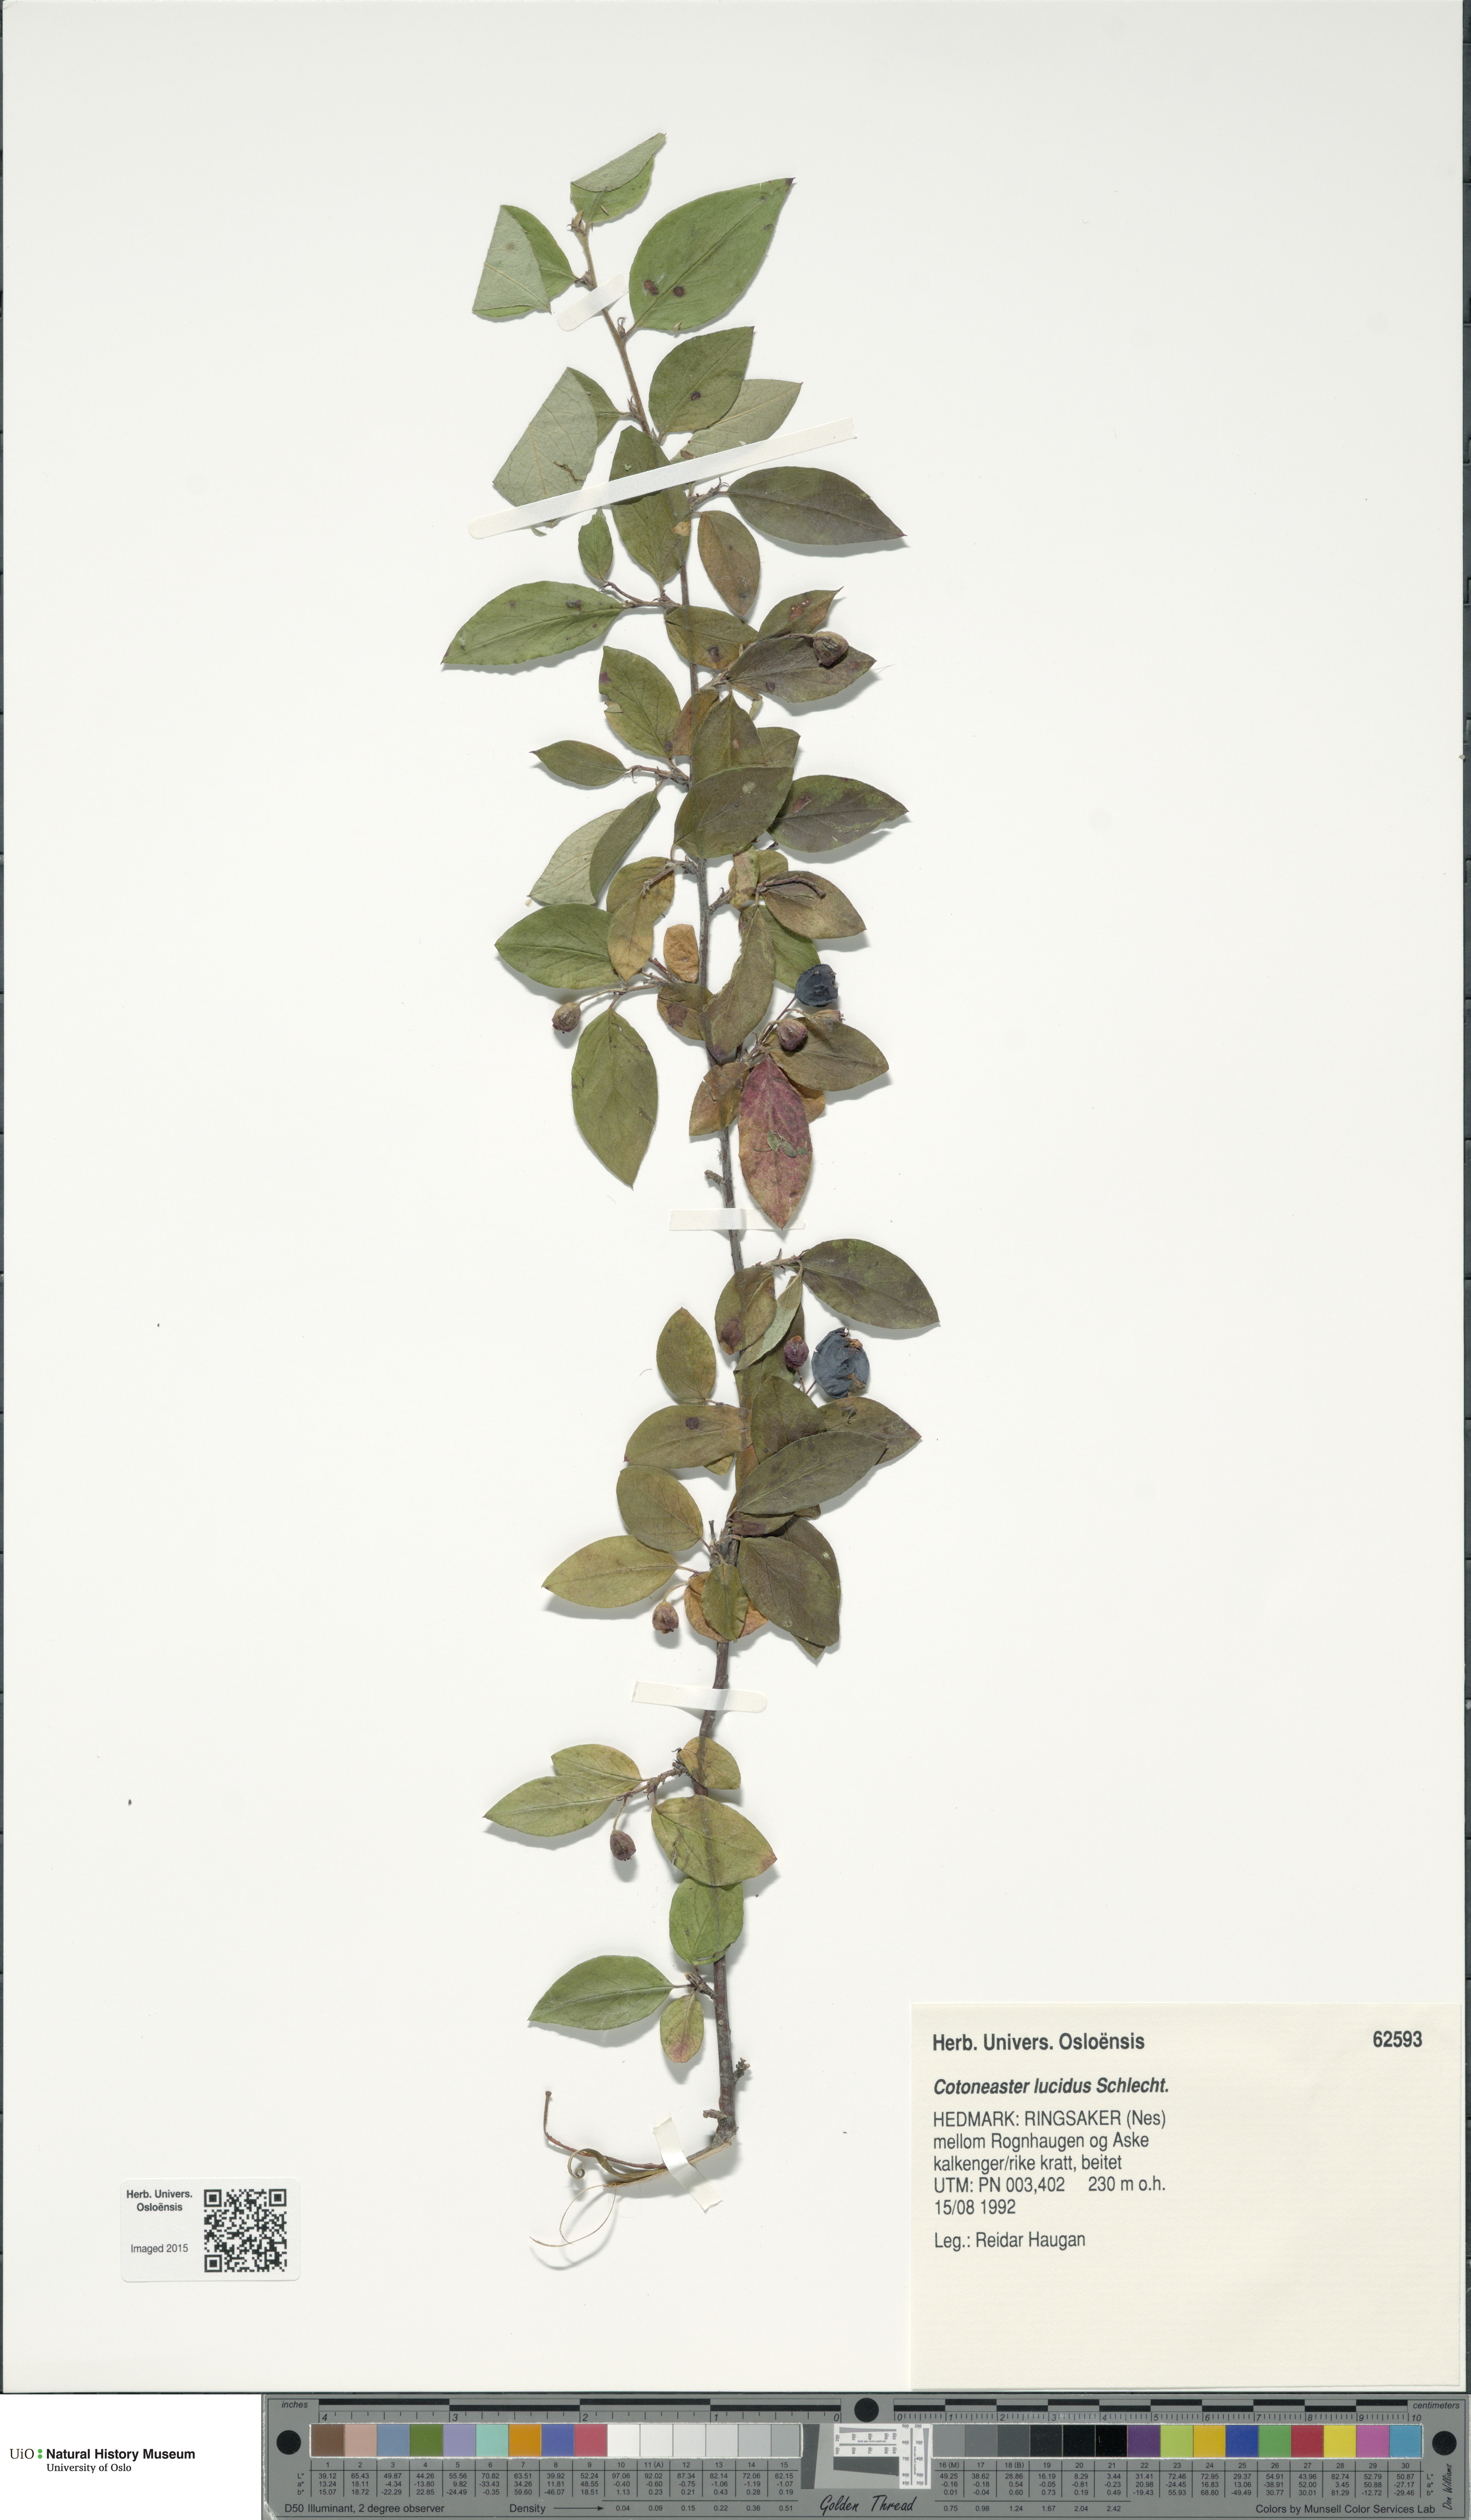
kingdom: Plantae
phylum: Tracheophyta
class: Magnoliopsida
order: Rosales
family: Rosaceae
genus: Cotoneaster
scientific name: Cotoneaster acutifolius
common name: Peking cotoneaster
